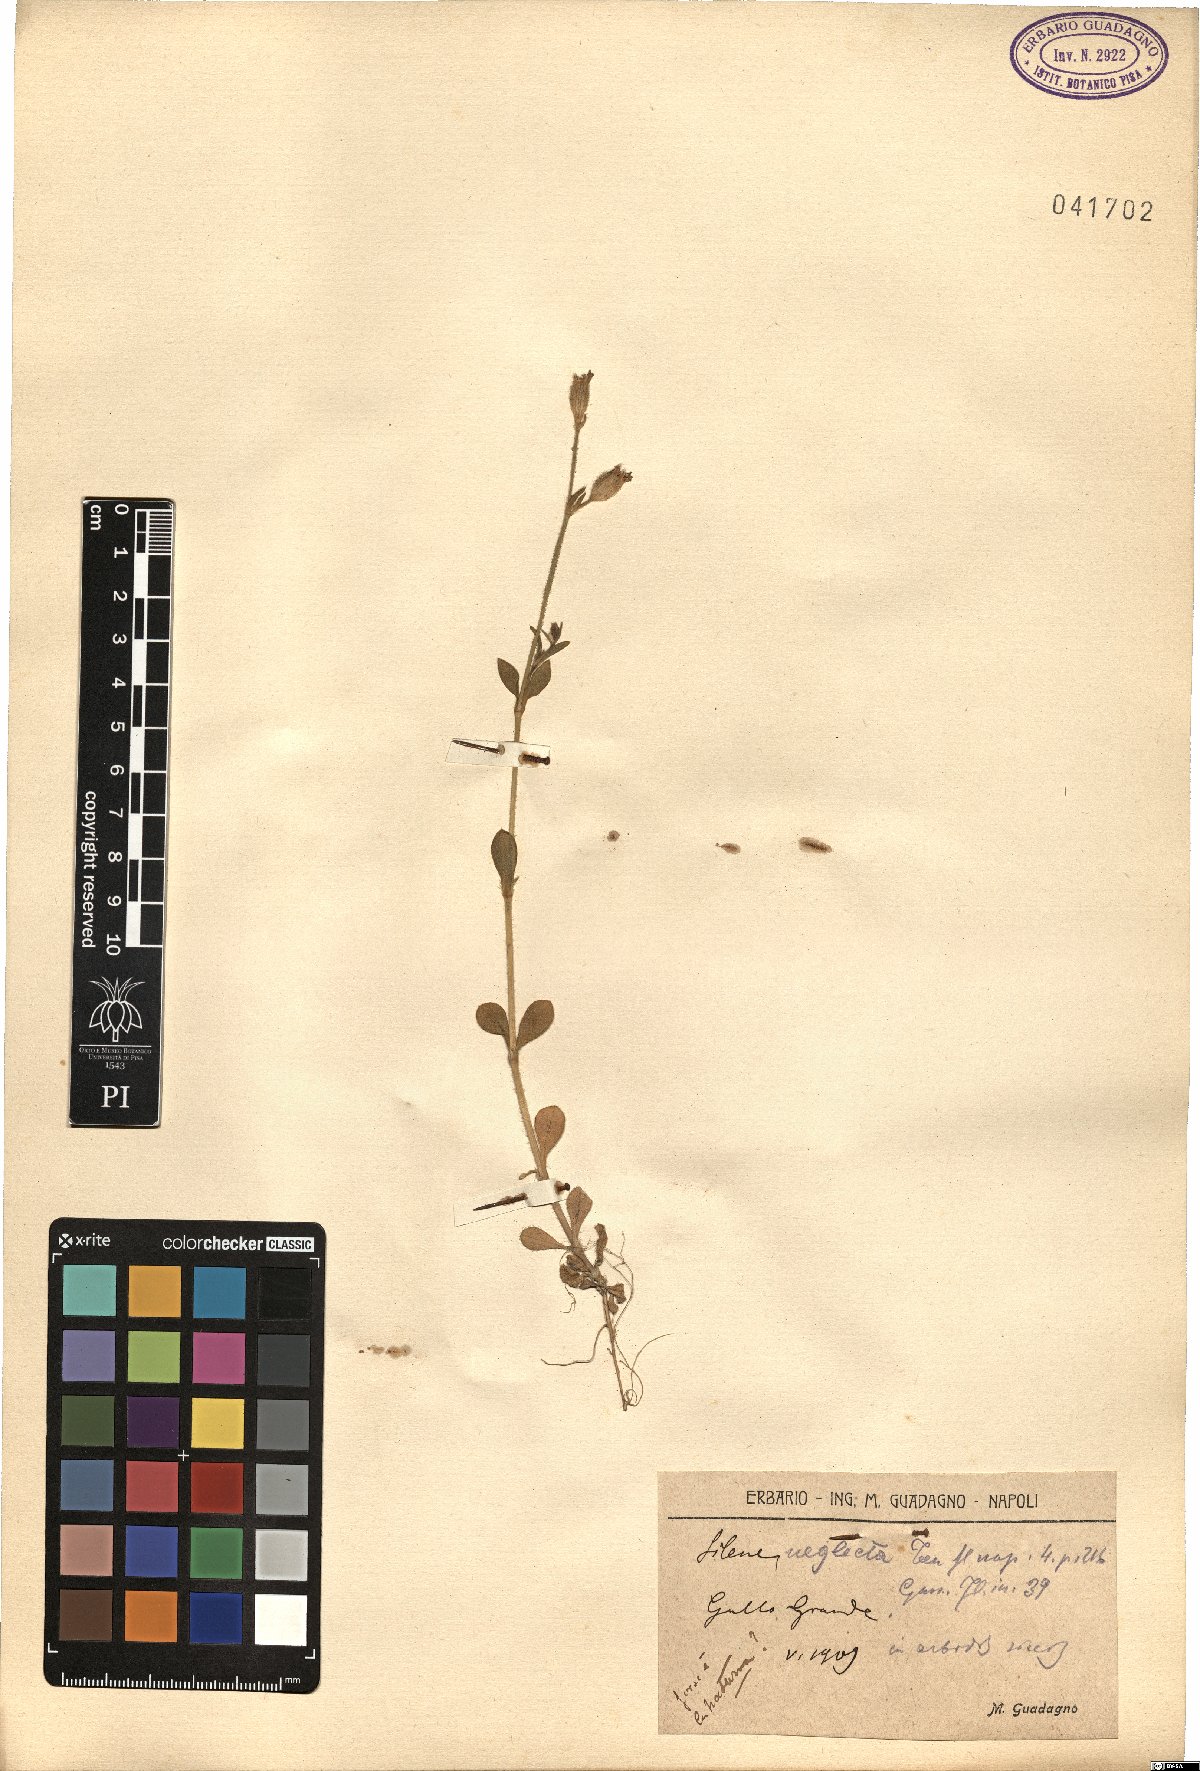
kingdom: Plantae
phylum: Tracheophyta
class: Magnoliopsida
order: Caryophyllales
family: Caryophyllaceae
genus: Silene
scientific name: Silene neglecta
